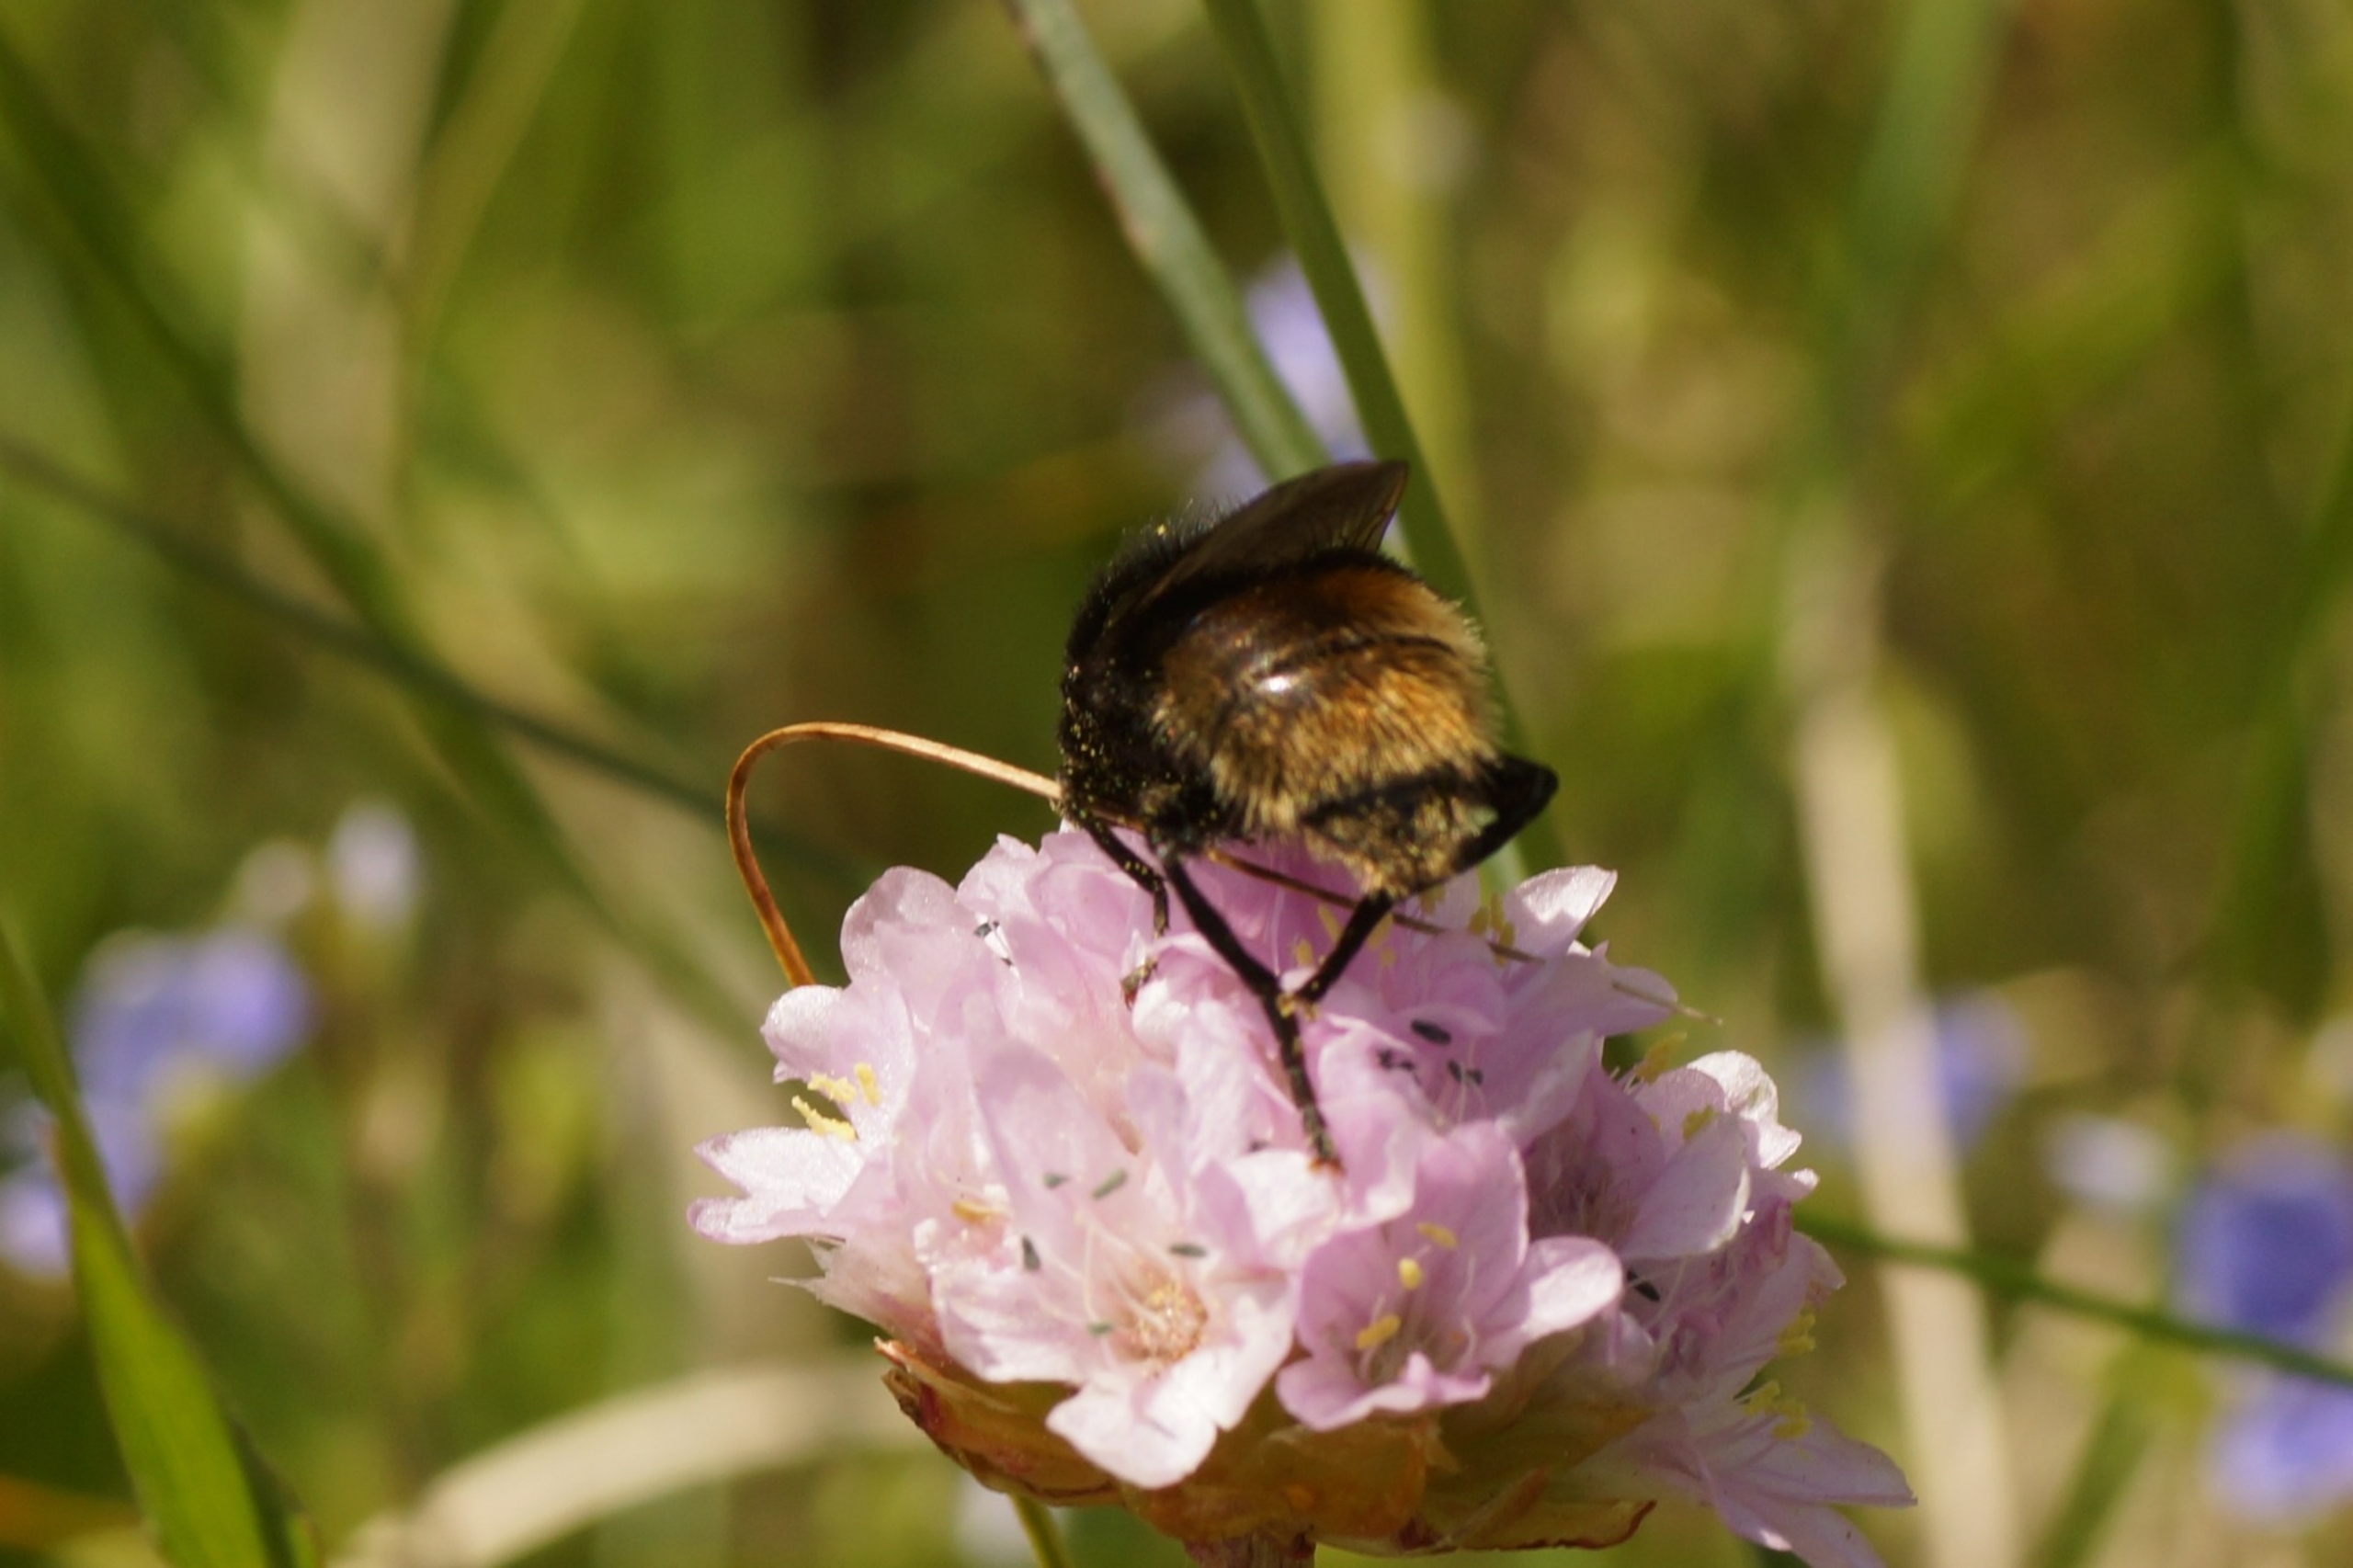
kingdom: Animalia
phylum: Arthropoda
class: Insecta
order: Diptera
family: Syrphidae
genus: Merodon
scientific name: Merodon equestris
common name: Stor narcisflue
